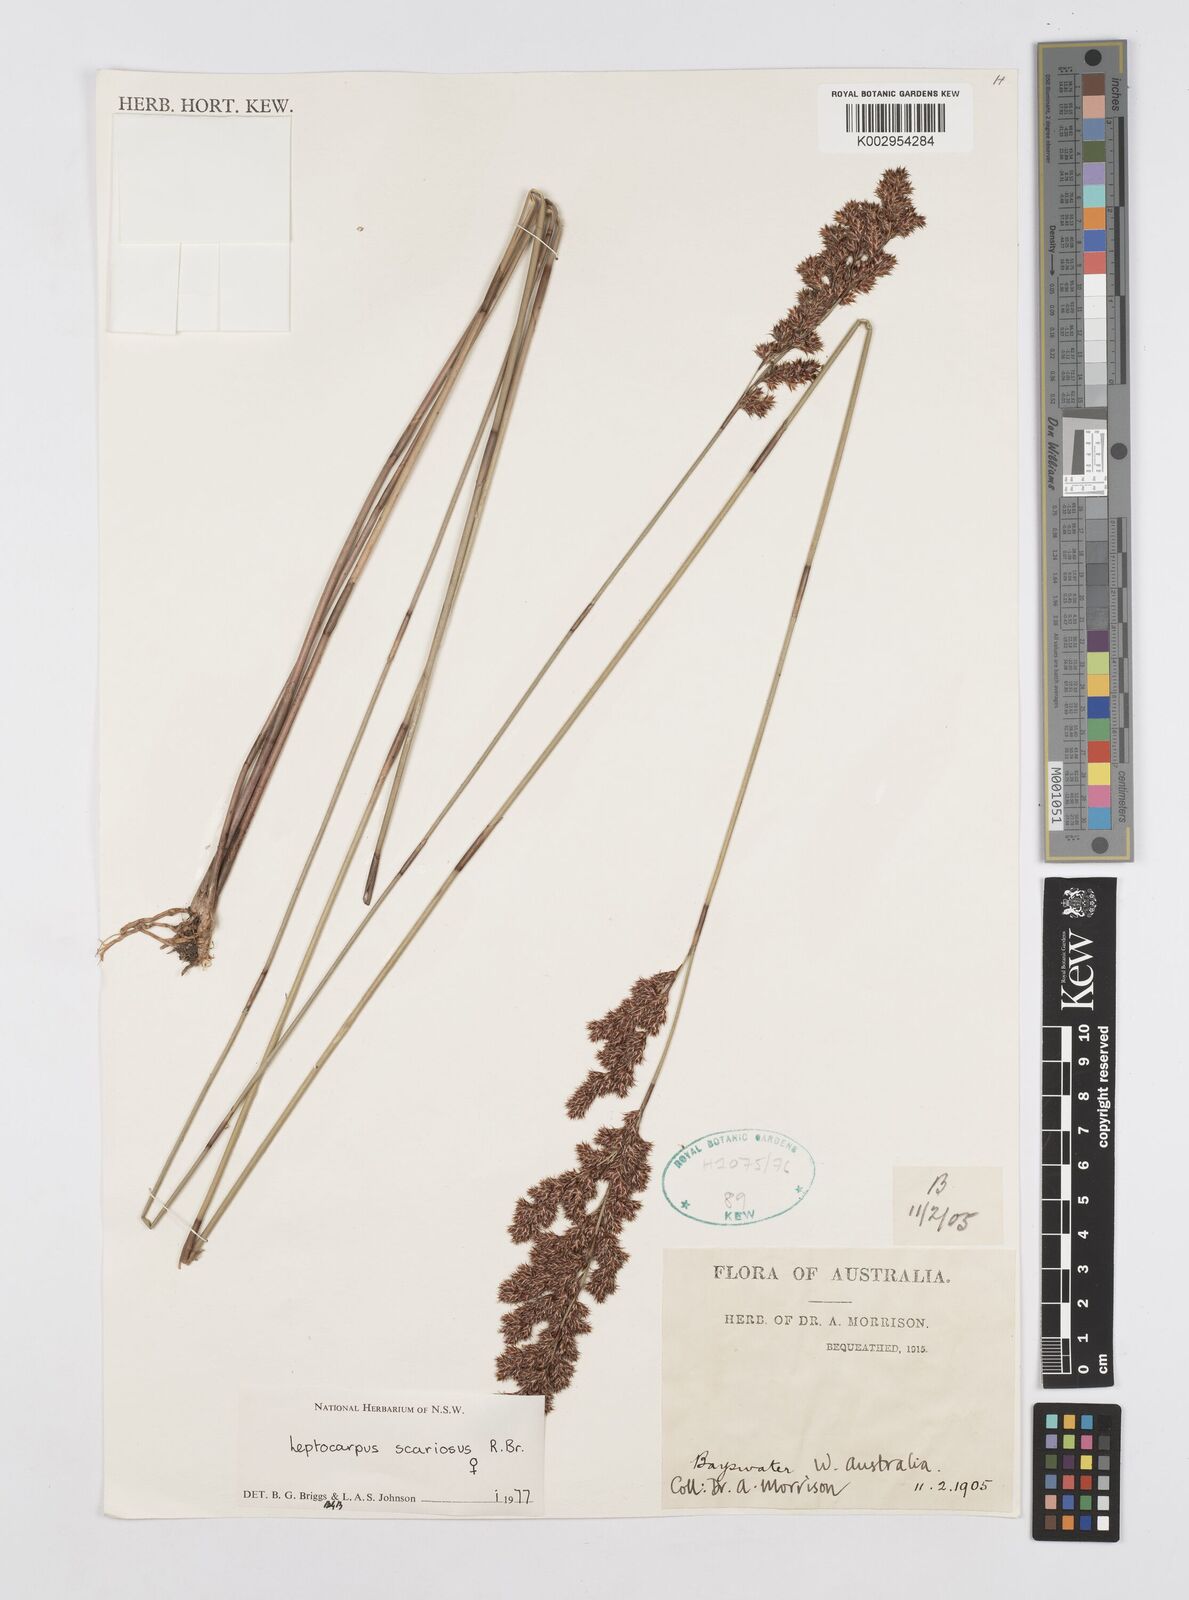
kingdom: Plantae
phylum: Tracheophyta
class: Liliopsida
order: Poales
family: Restionaceae
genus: Leptocarpus
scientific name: Leptocarpus scariosus
